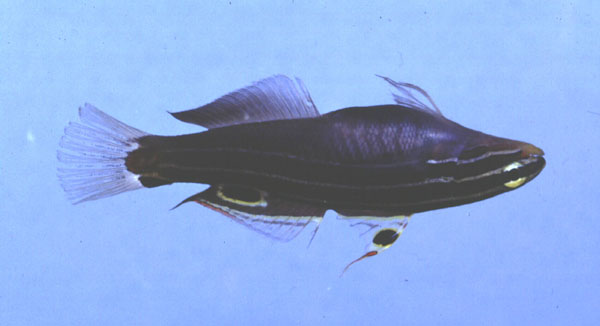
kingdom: Animalia
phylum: Chordata
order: Perciformes
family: Gobiidae
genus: Koumansetta
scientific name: Koumansetta hectori
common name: Hector's goby
